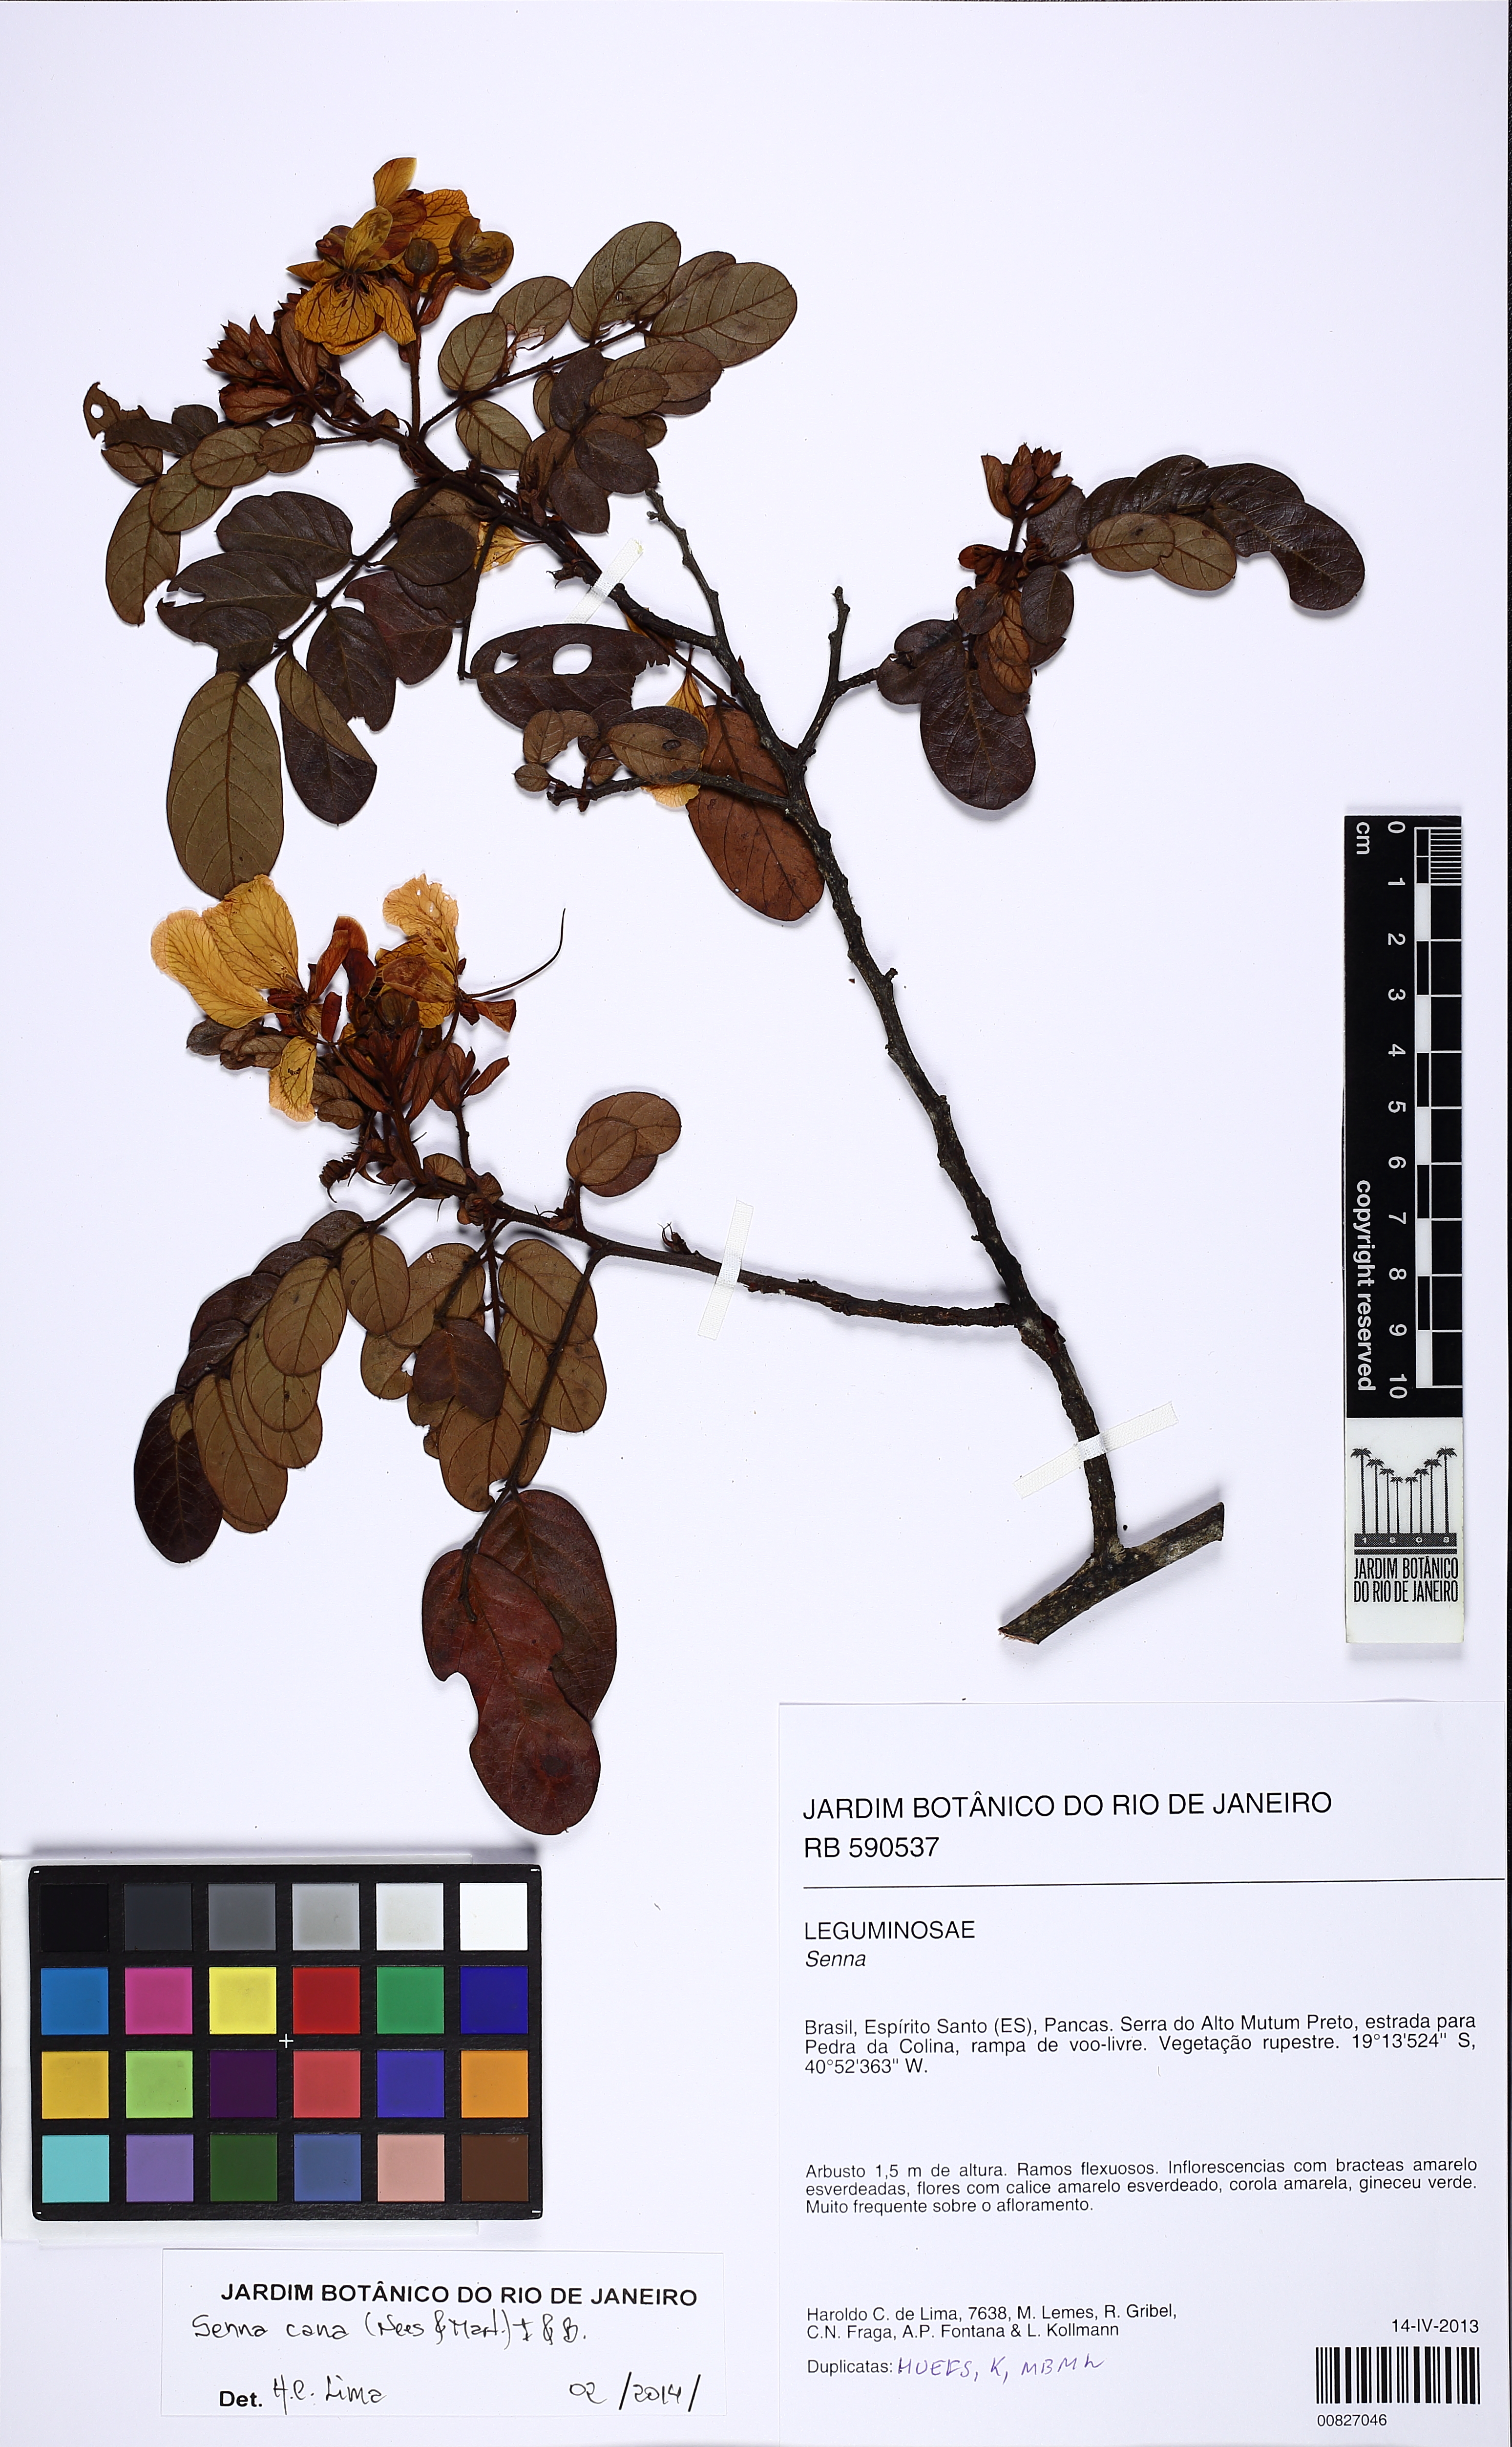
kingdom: Plantae
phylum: Tracheophyta
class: Magnoliopsida
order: Fabales
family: Fabaceae
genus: Senna
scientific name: Senna cana
